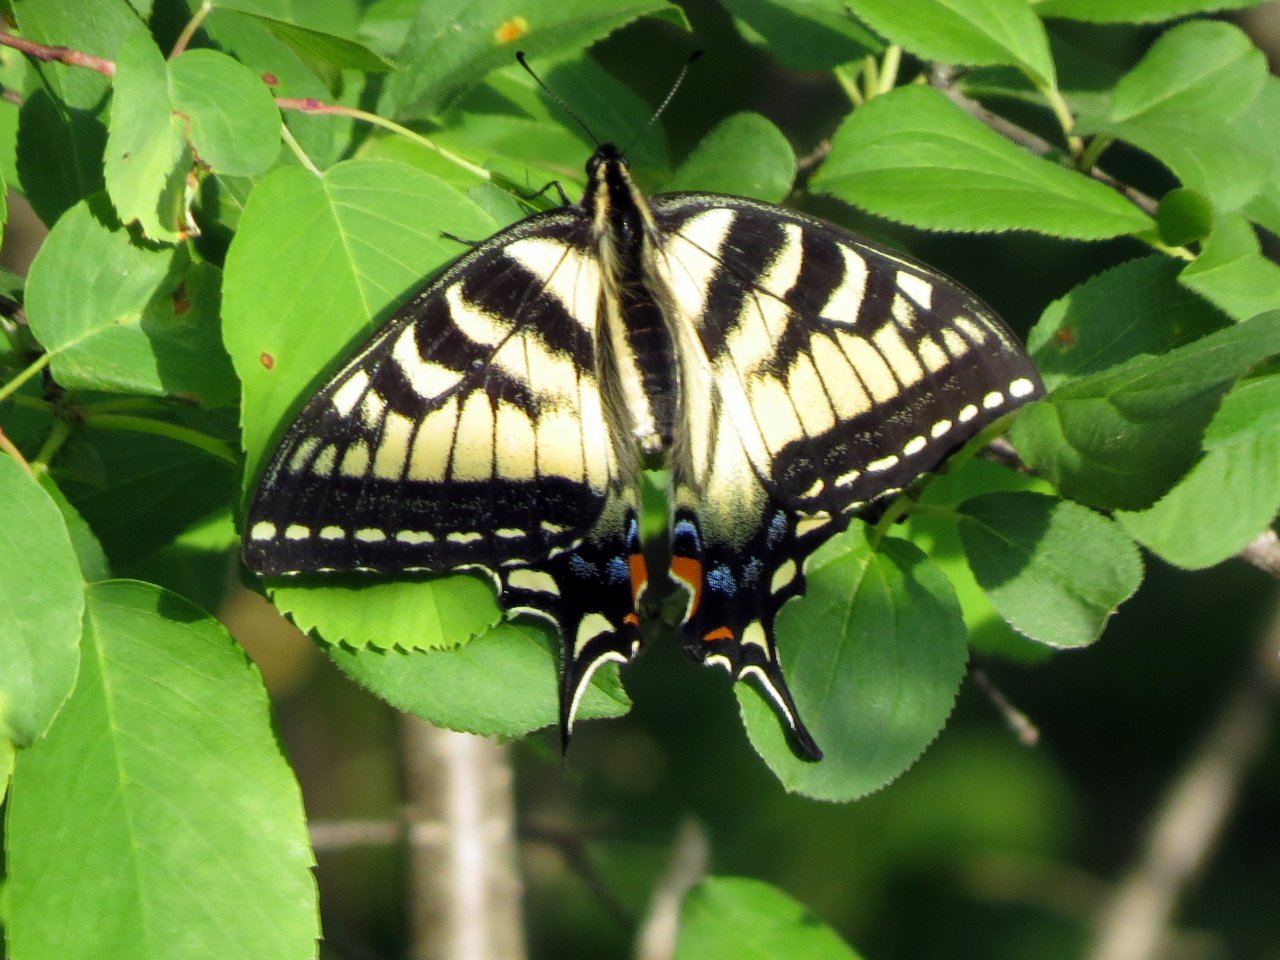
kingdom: Animalia
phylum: Arthropoda
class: Insecta
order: Lepidoptera
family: Papilionidae
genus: Pterourus
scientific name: Pterourus canadensis
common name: Canadian Tiger Swallowtail
